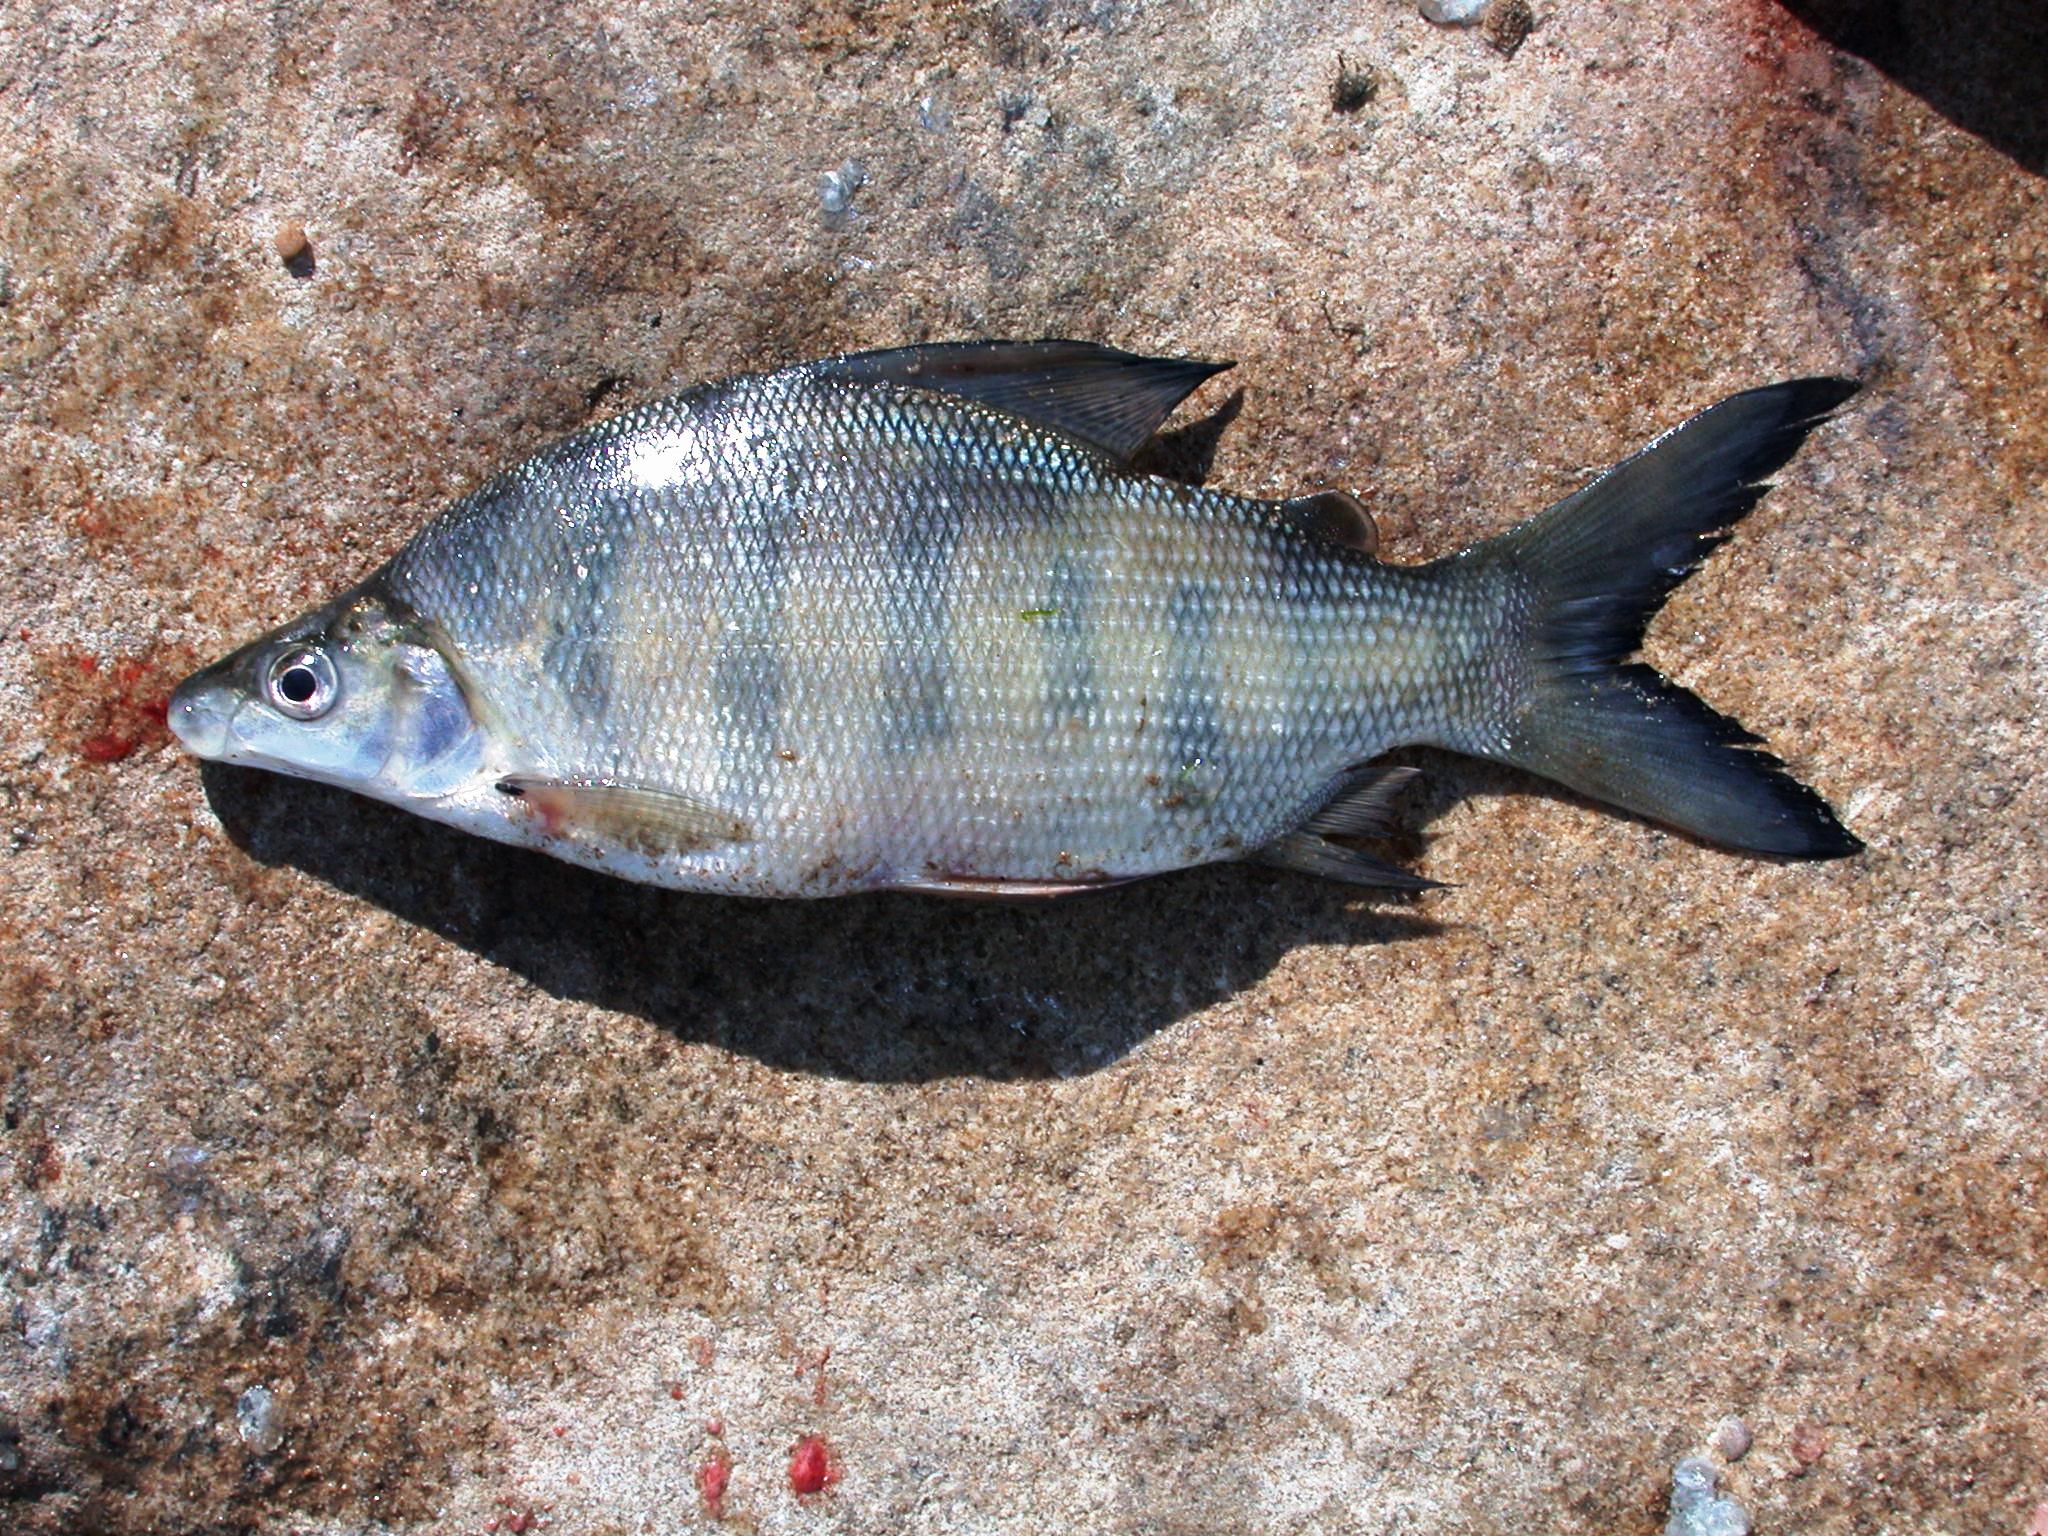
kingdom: Animalia
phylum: Chordata
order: Characiformes
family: Distichodontidae
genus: Distichodus
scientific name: Distichodus mossambicus
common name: Nkupe
